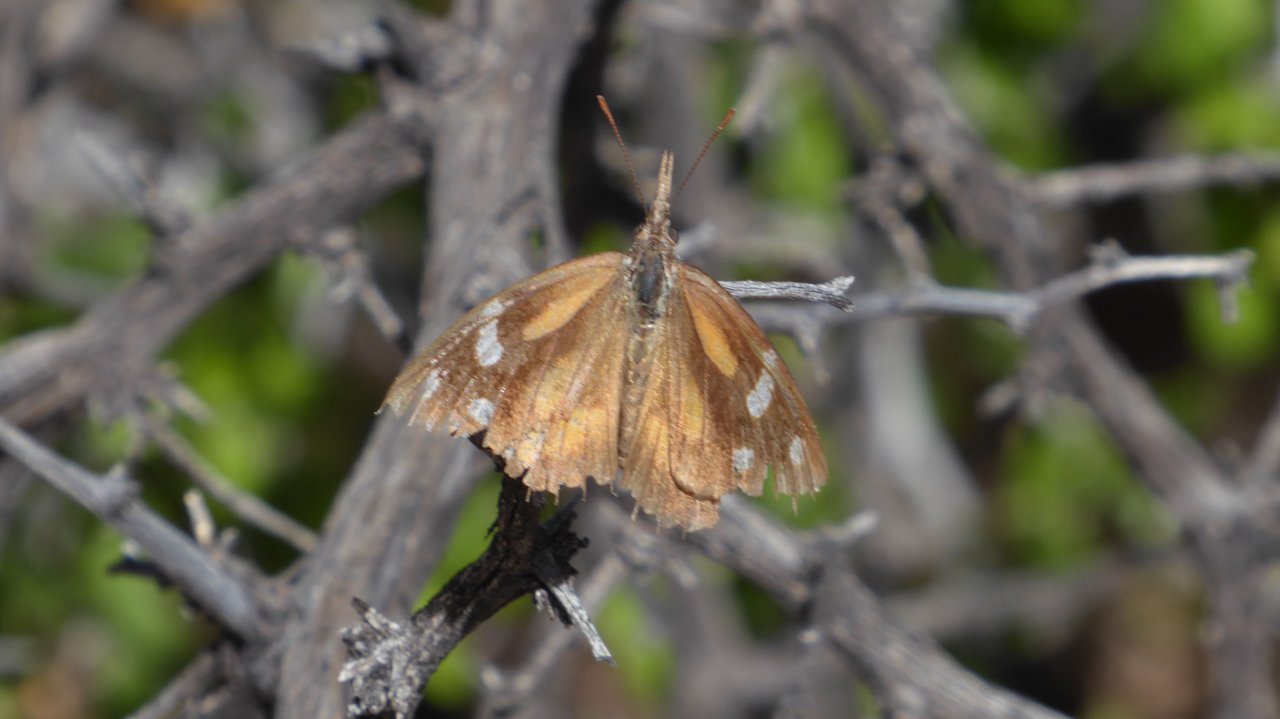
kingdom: Animalia
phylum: Arthropoda
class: Insecta
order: Lepidoptera
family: Nymphalidae
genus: Libytheana
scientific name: Libytheana carinenta
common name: American Snout
